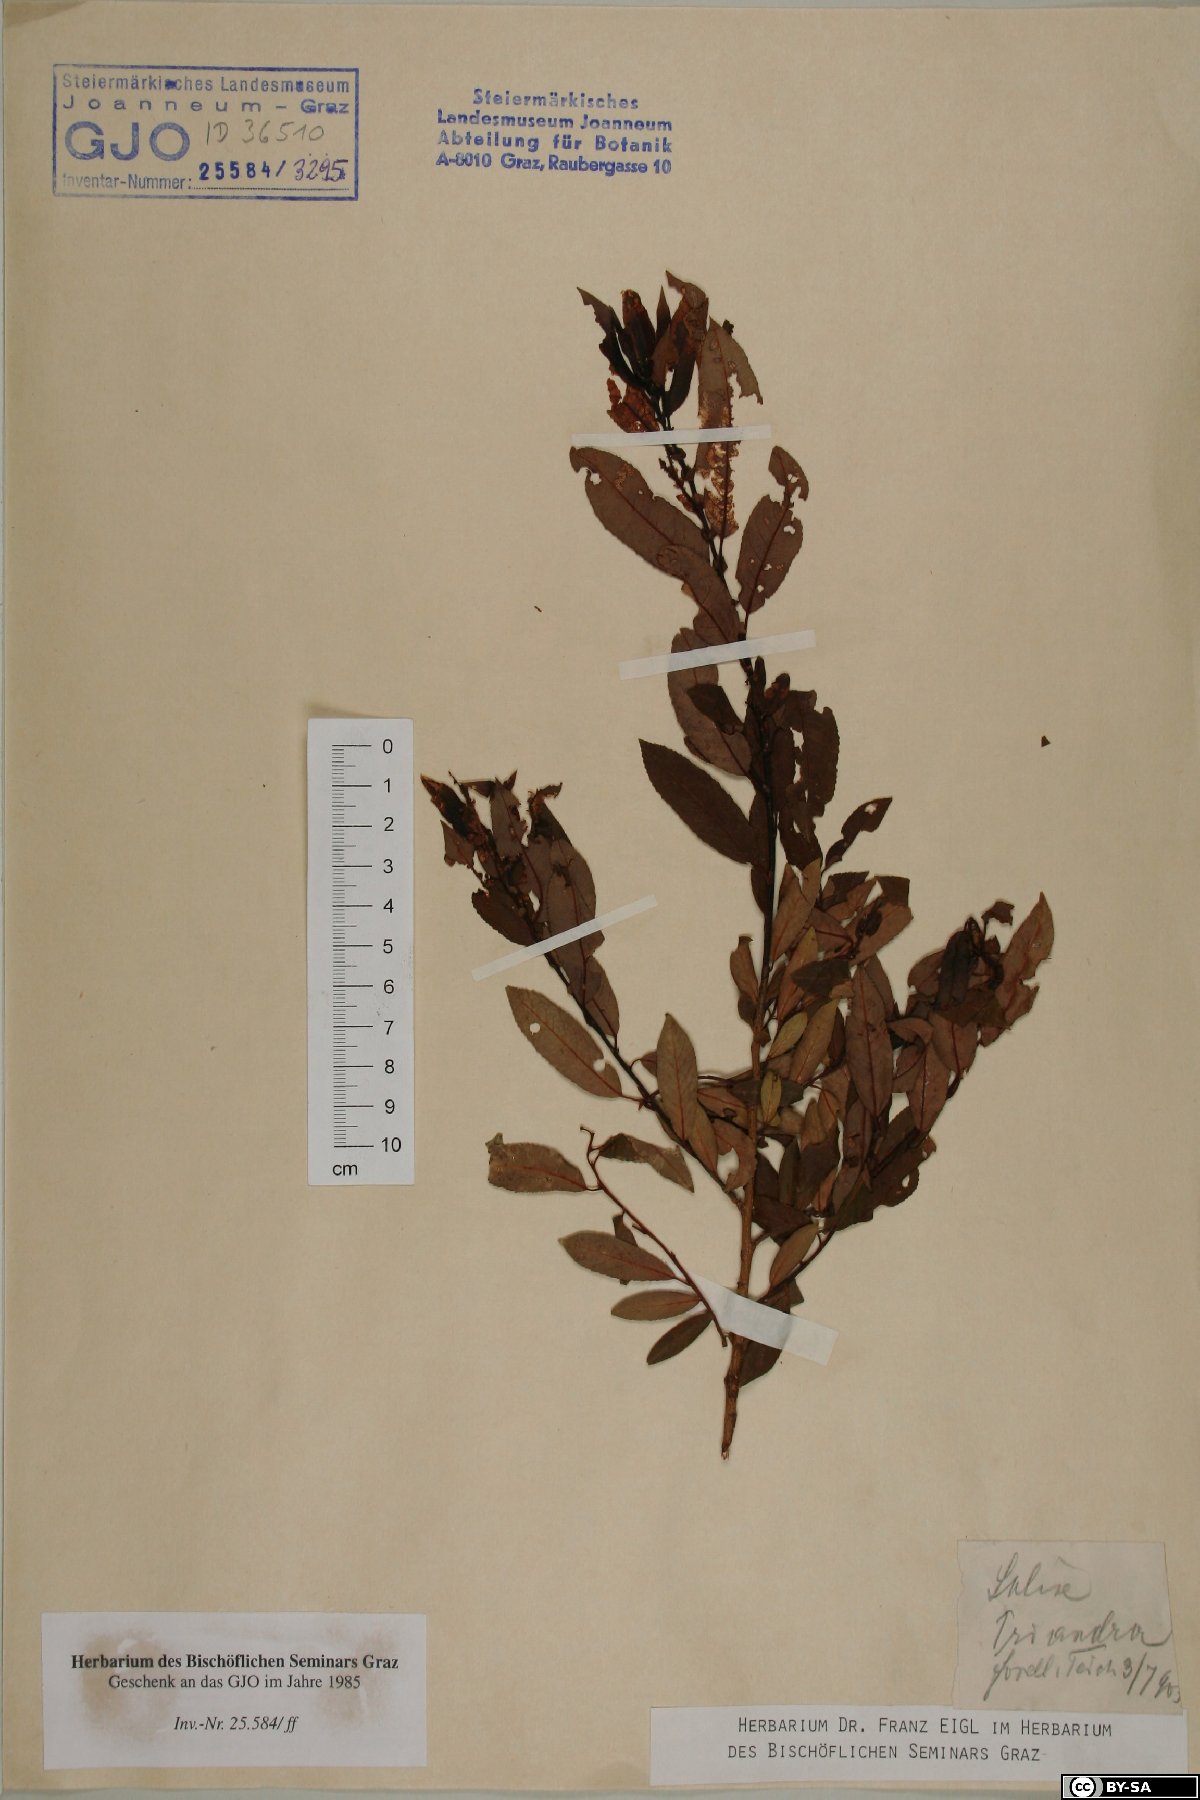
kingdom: Plantae
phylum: Tracheophyta
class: Magnoliopsida
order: Malpighiales
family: Salicaceae
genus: Salix
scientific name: Salix triandra
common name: Almond willow
